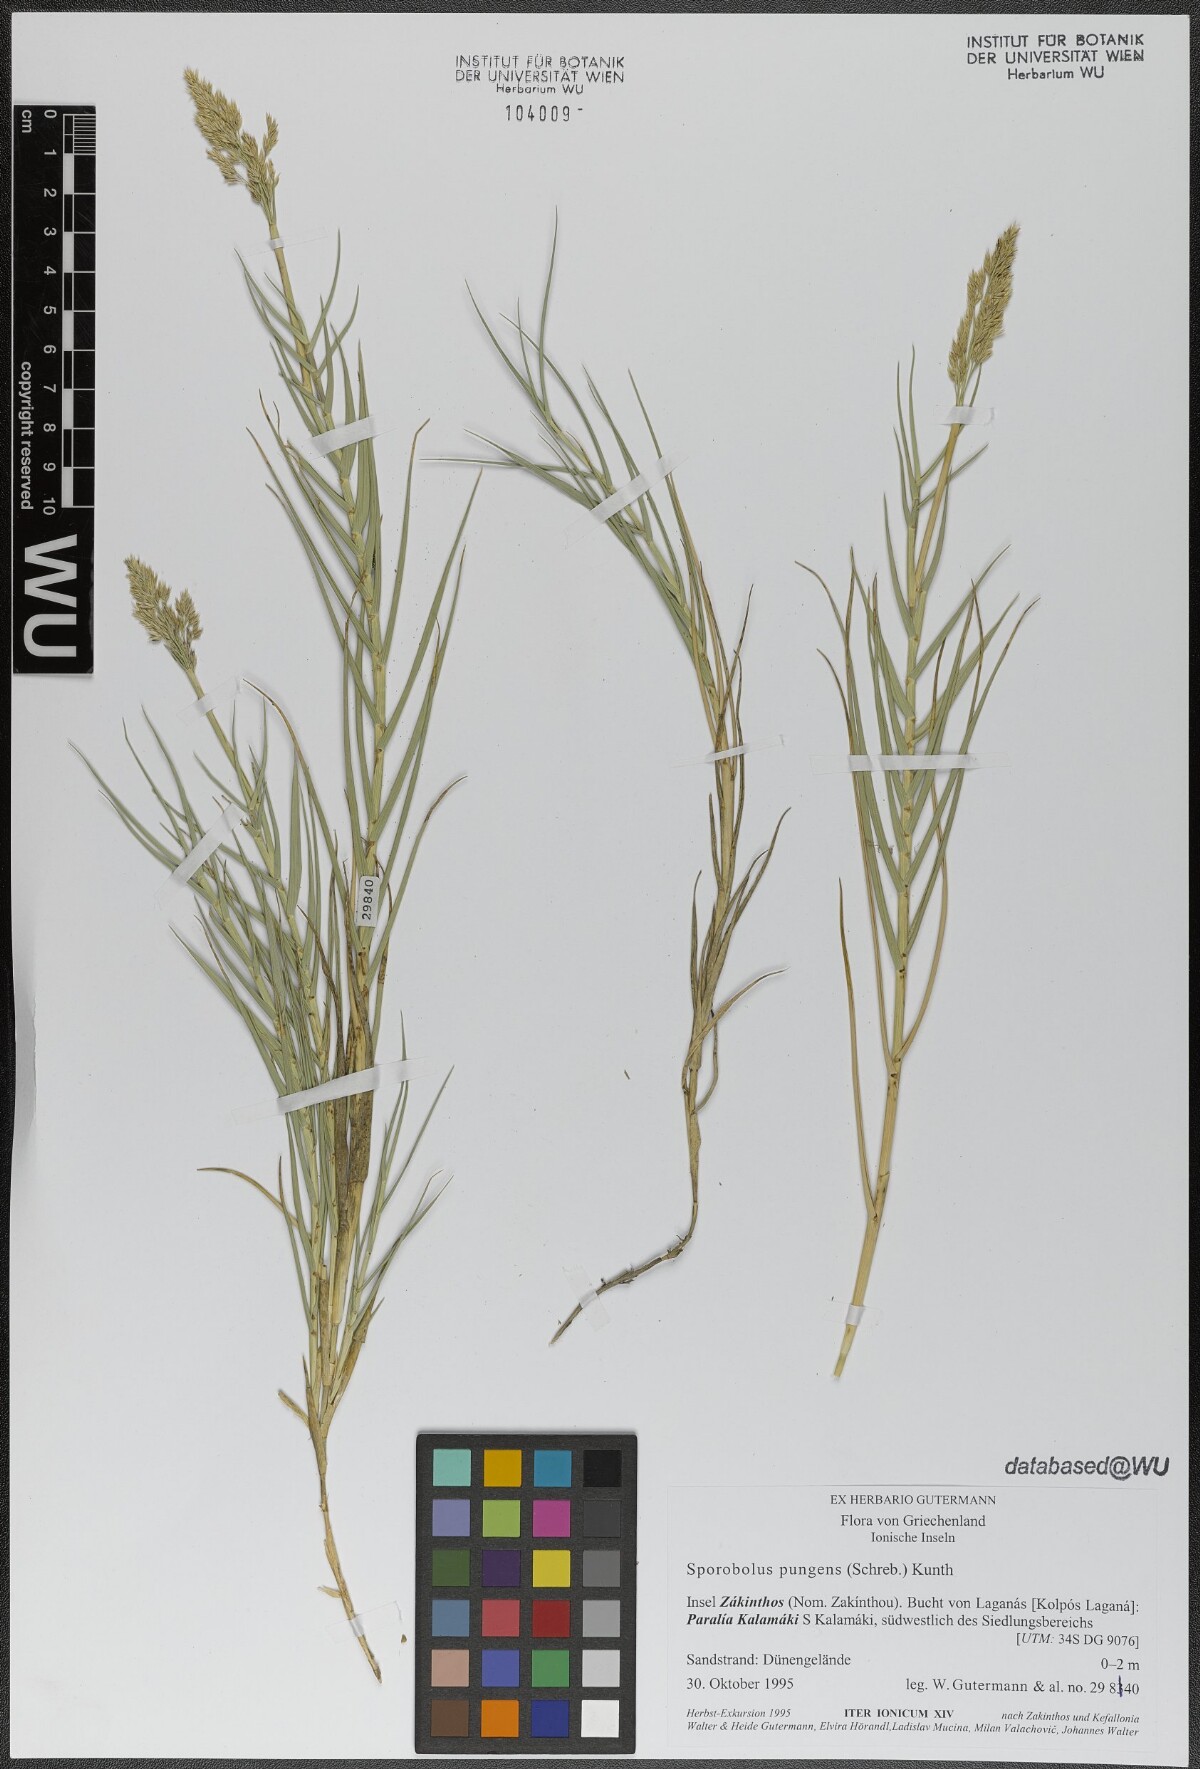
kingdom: Plantae
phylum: Tracheophyta
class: Liliopsida
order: Poales
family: Poaceae
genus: Sporobolus
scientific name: Sporobolus pungens
